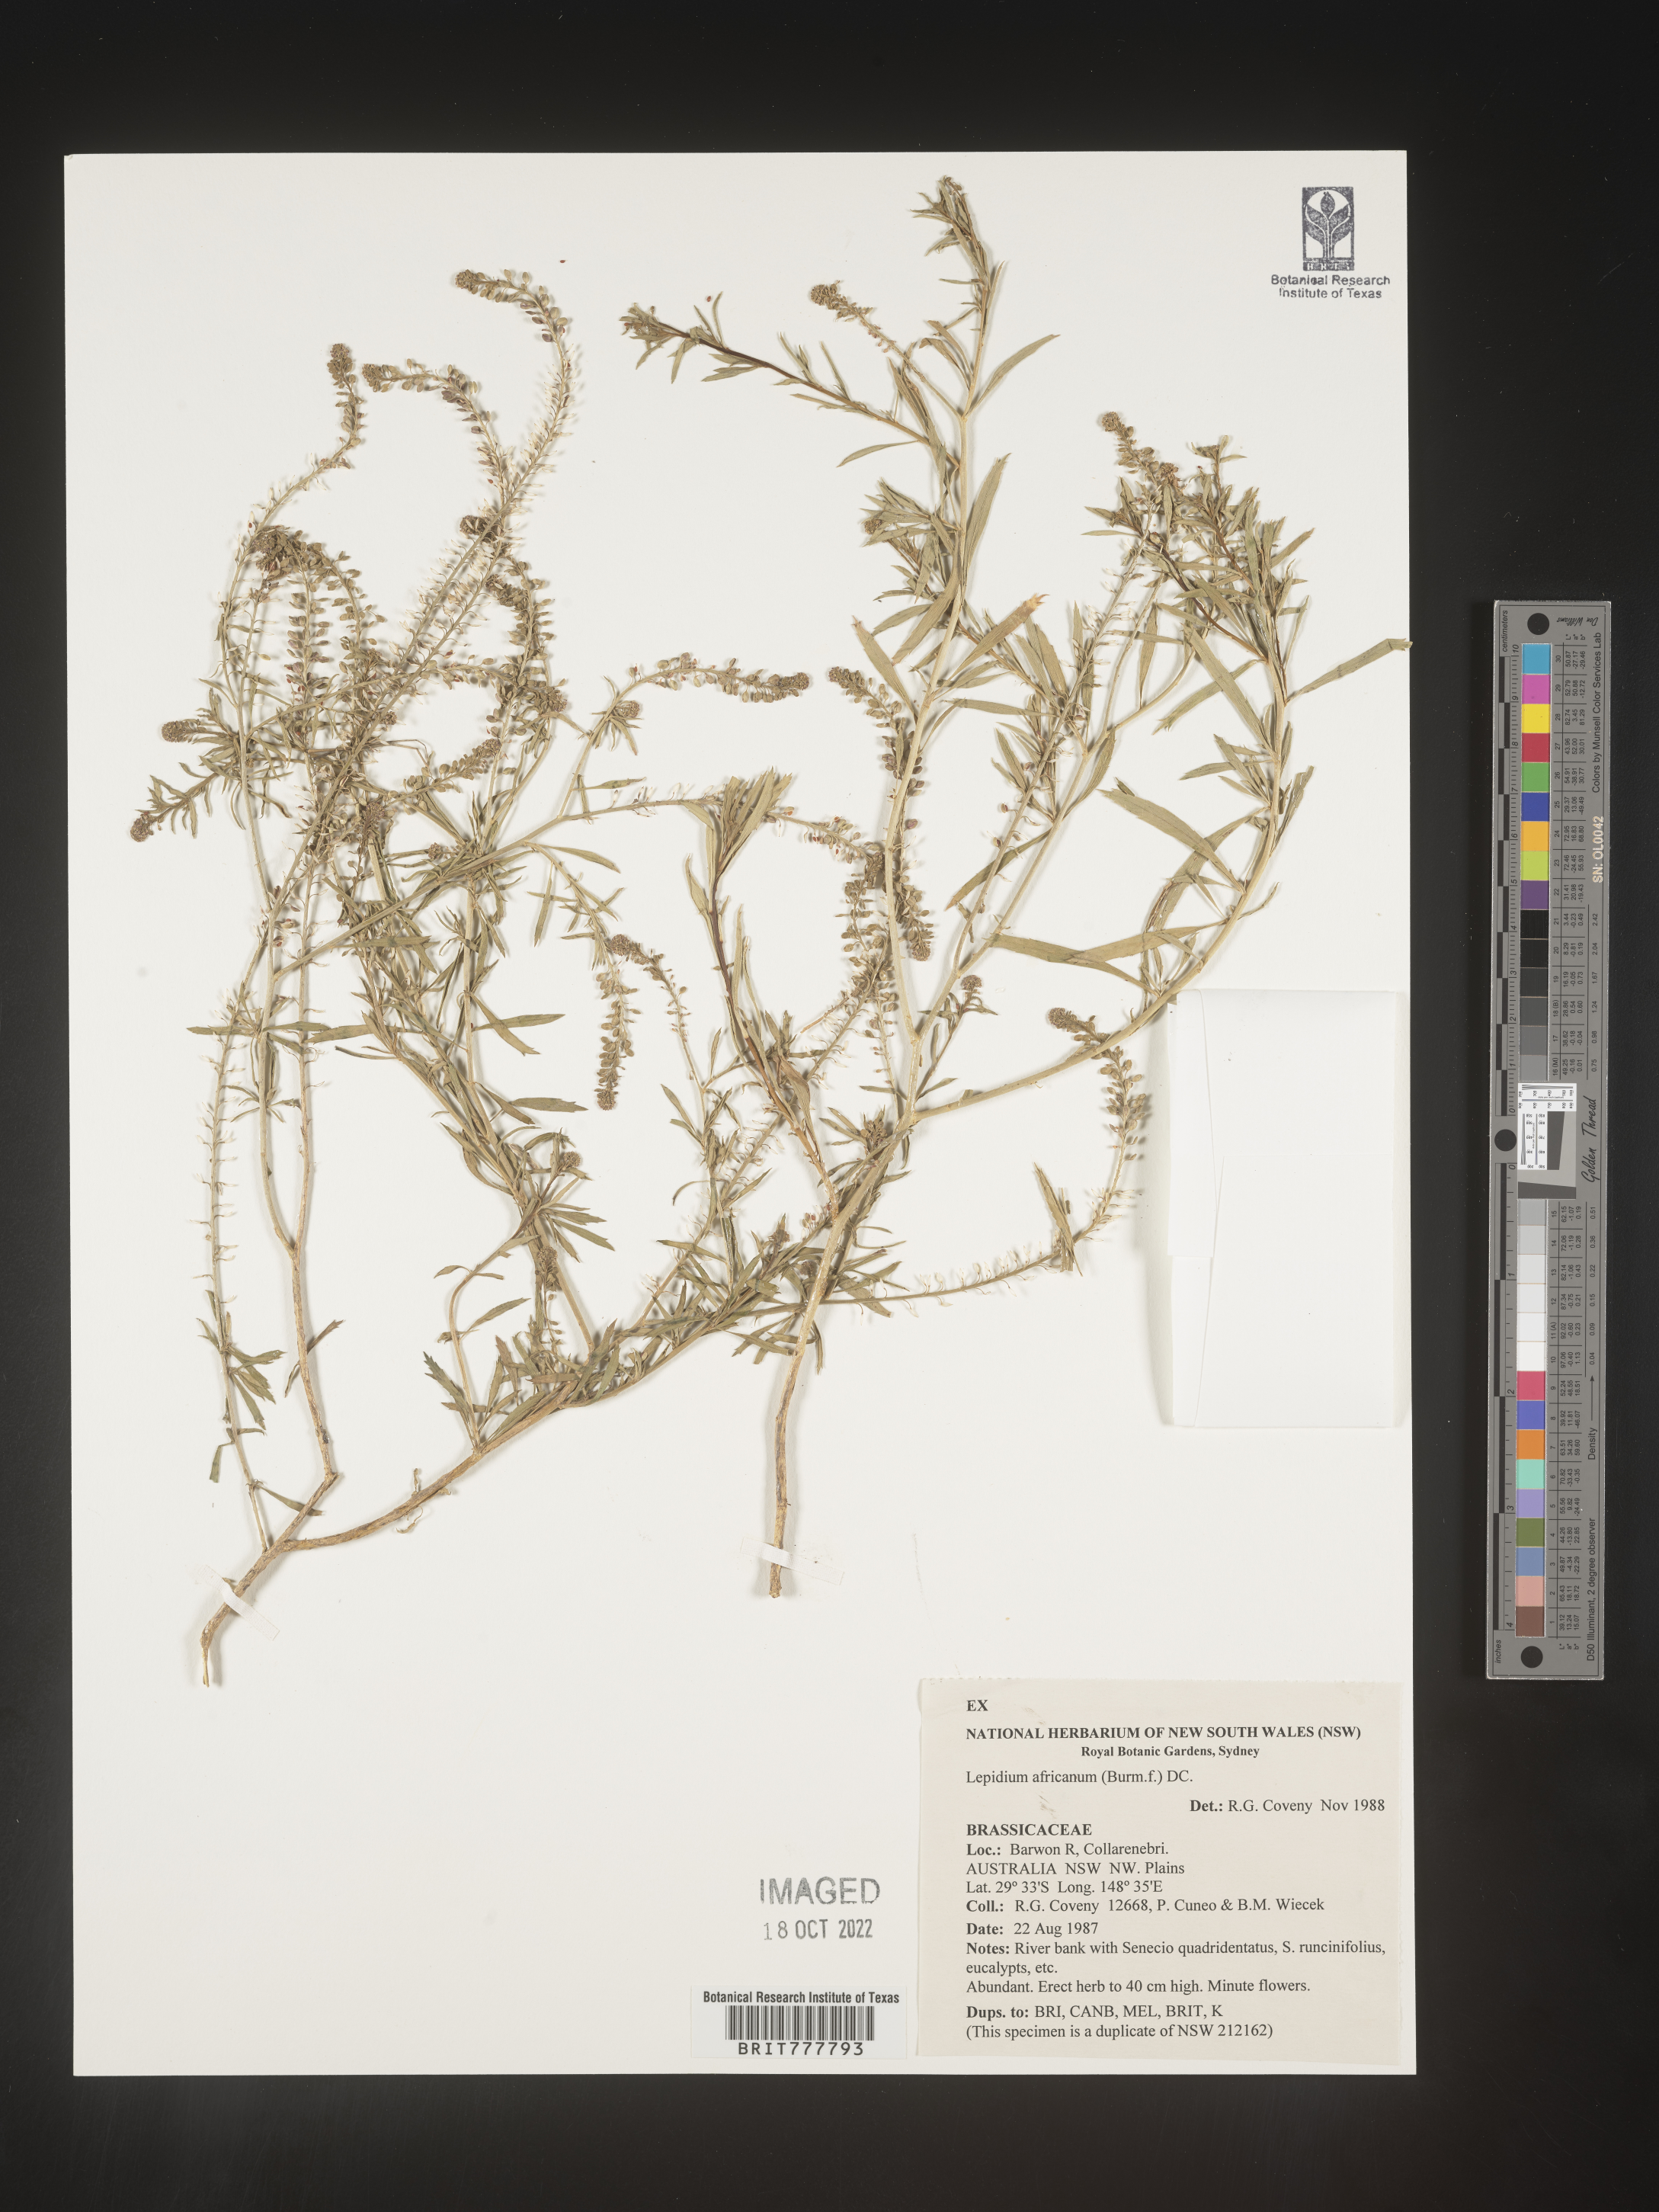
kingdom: Plantae
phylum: Tracheophyta
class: Magnoliopsida
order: Brassicales
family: Brassicaceae
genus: Lepidium
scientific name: Lepidium
